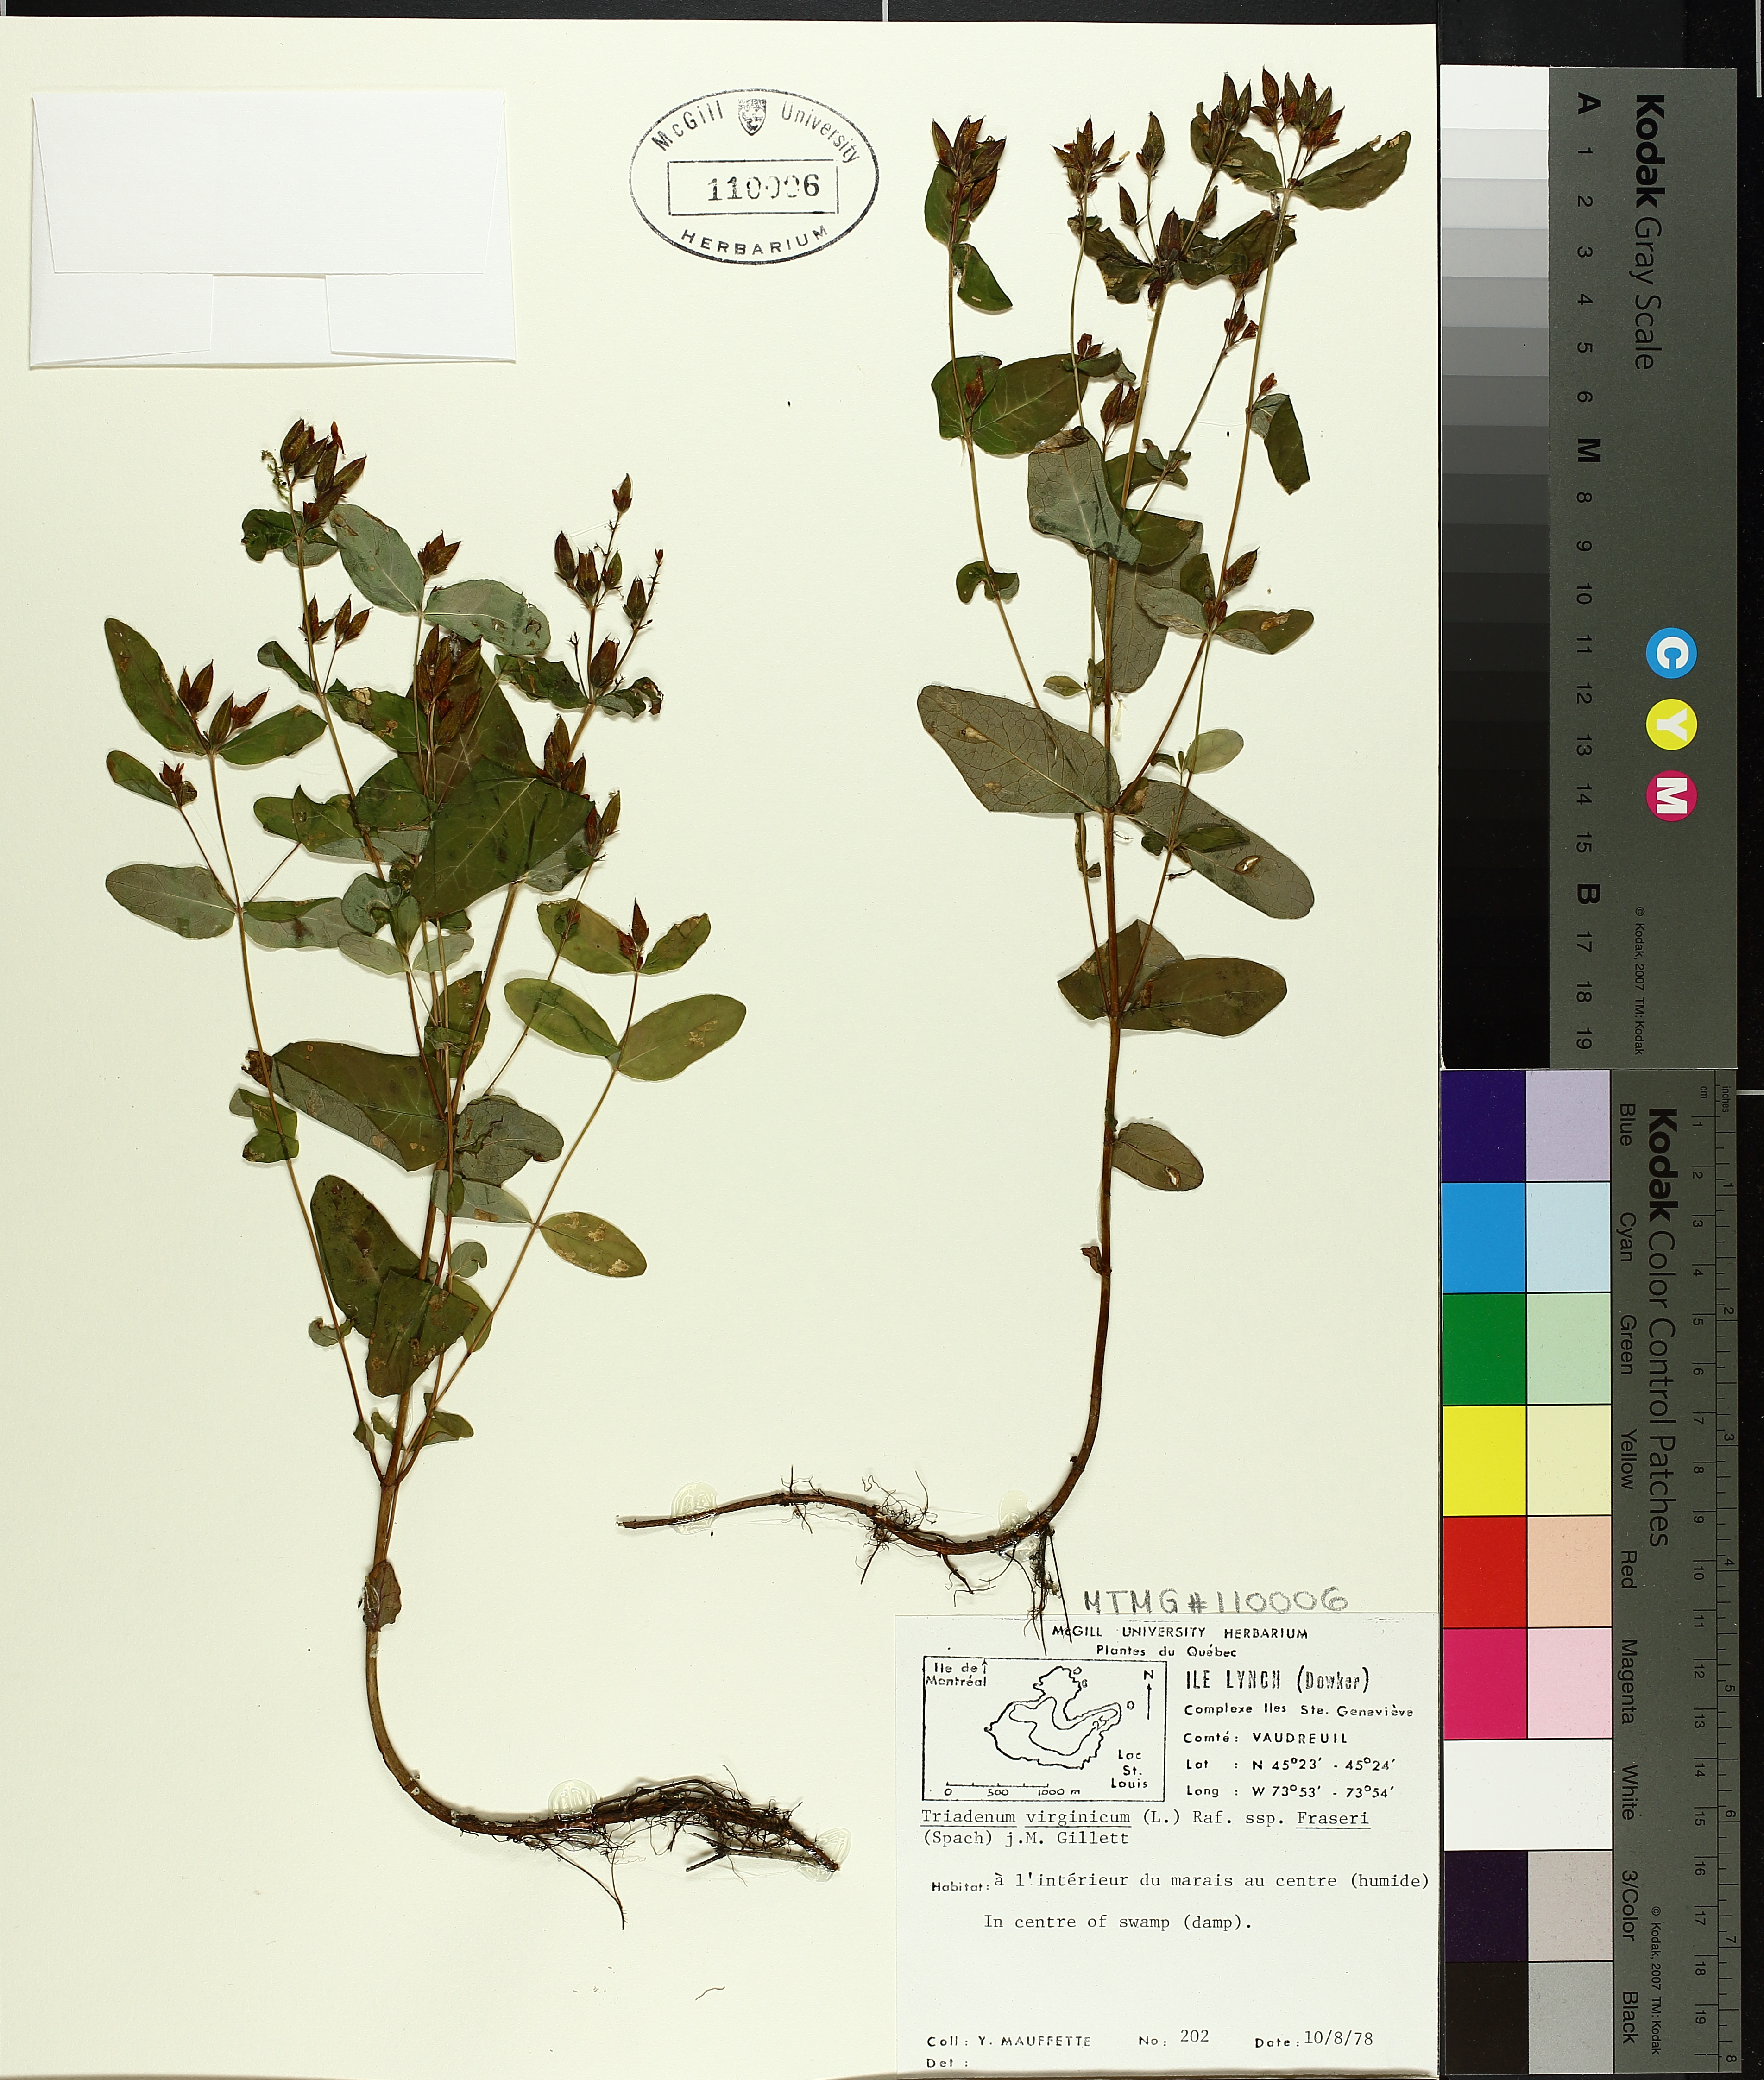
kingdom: Plantae
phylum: Tracheophyta
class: Magnoliopsida
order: Malpighiales
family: Hypericaceae
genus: Triadenum
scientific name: Triadenum fraseri
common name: Fraser's marsh st. johnswort
